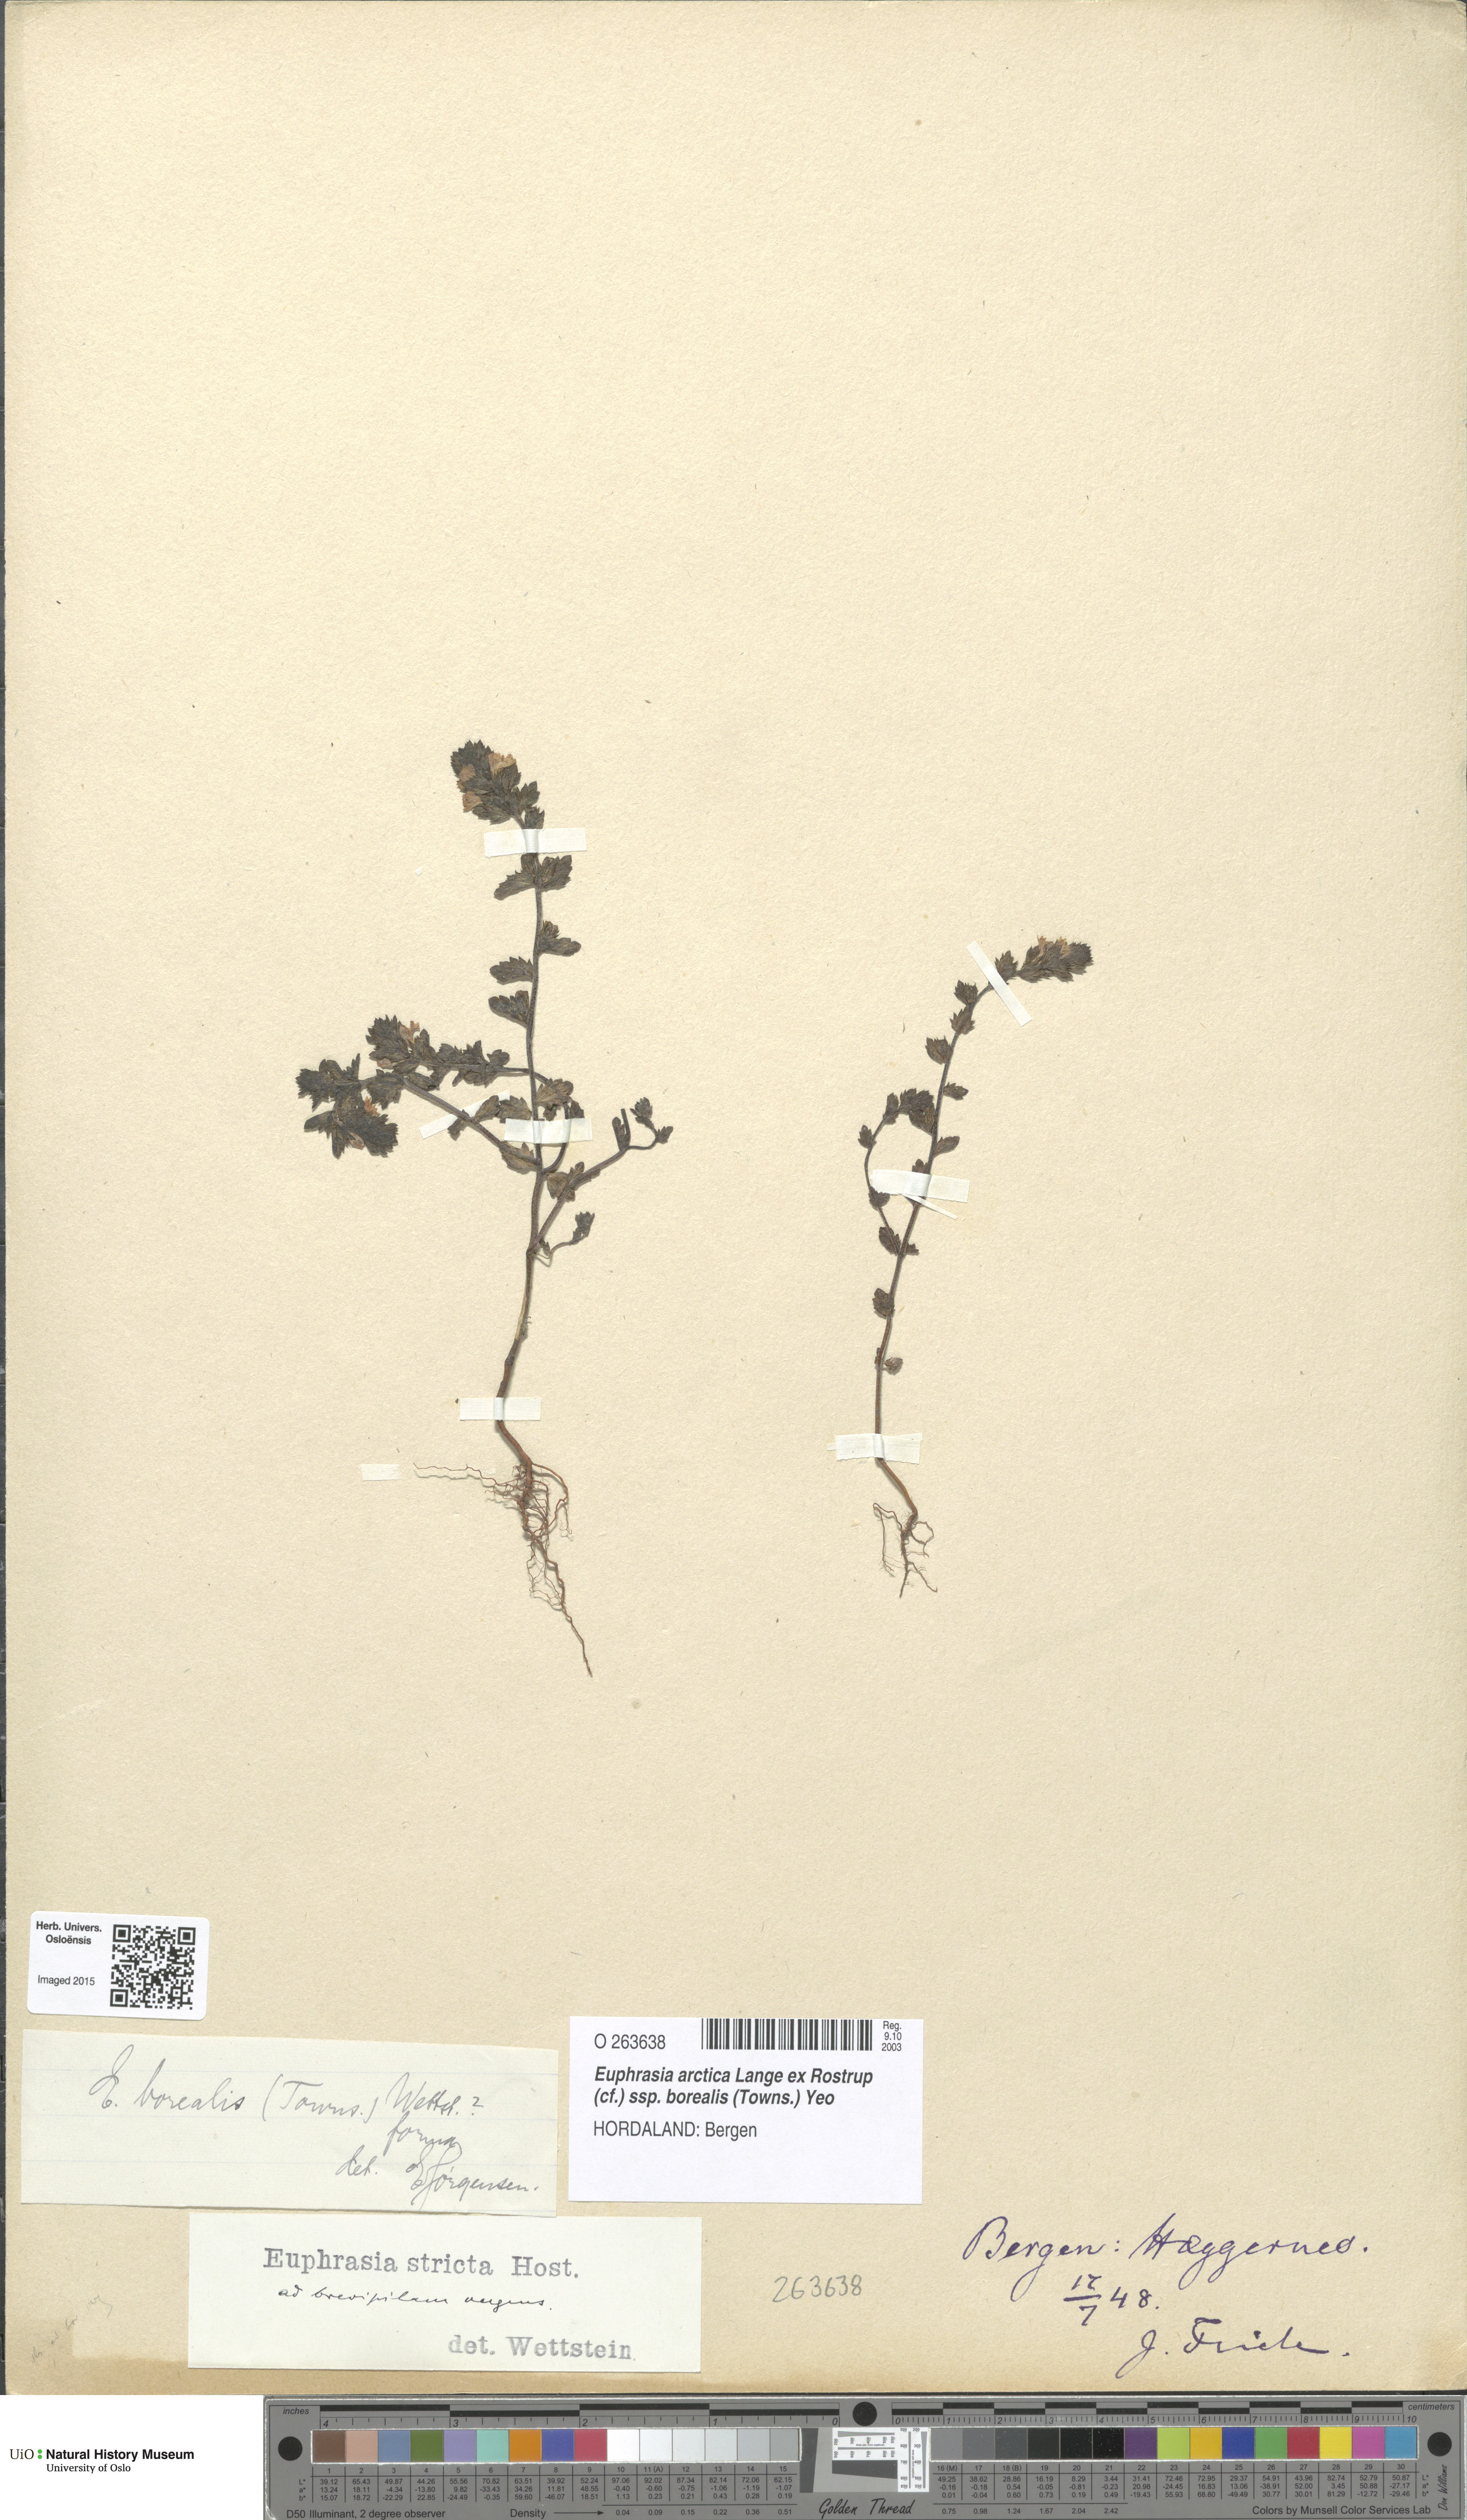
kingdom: Plantae
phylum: Tracheophyta
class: Magnoliopsida
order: Lamiales
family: Orobanchaceae
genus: Euphrasia
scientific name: Euphrasia arctica
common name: An eyebright
